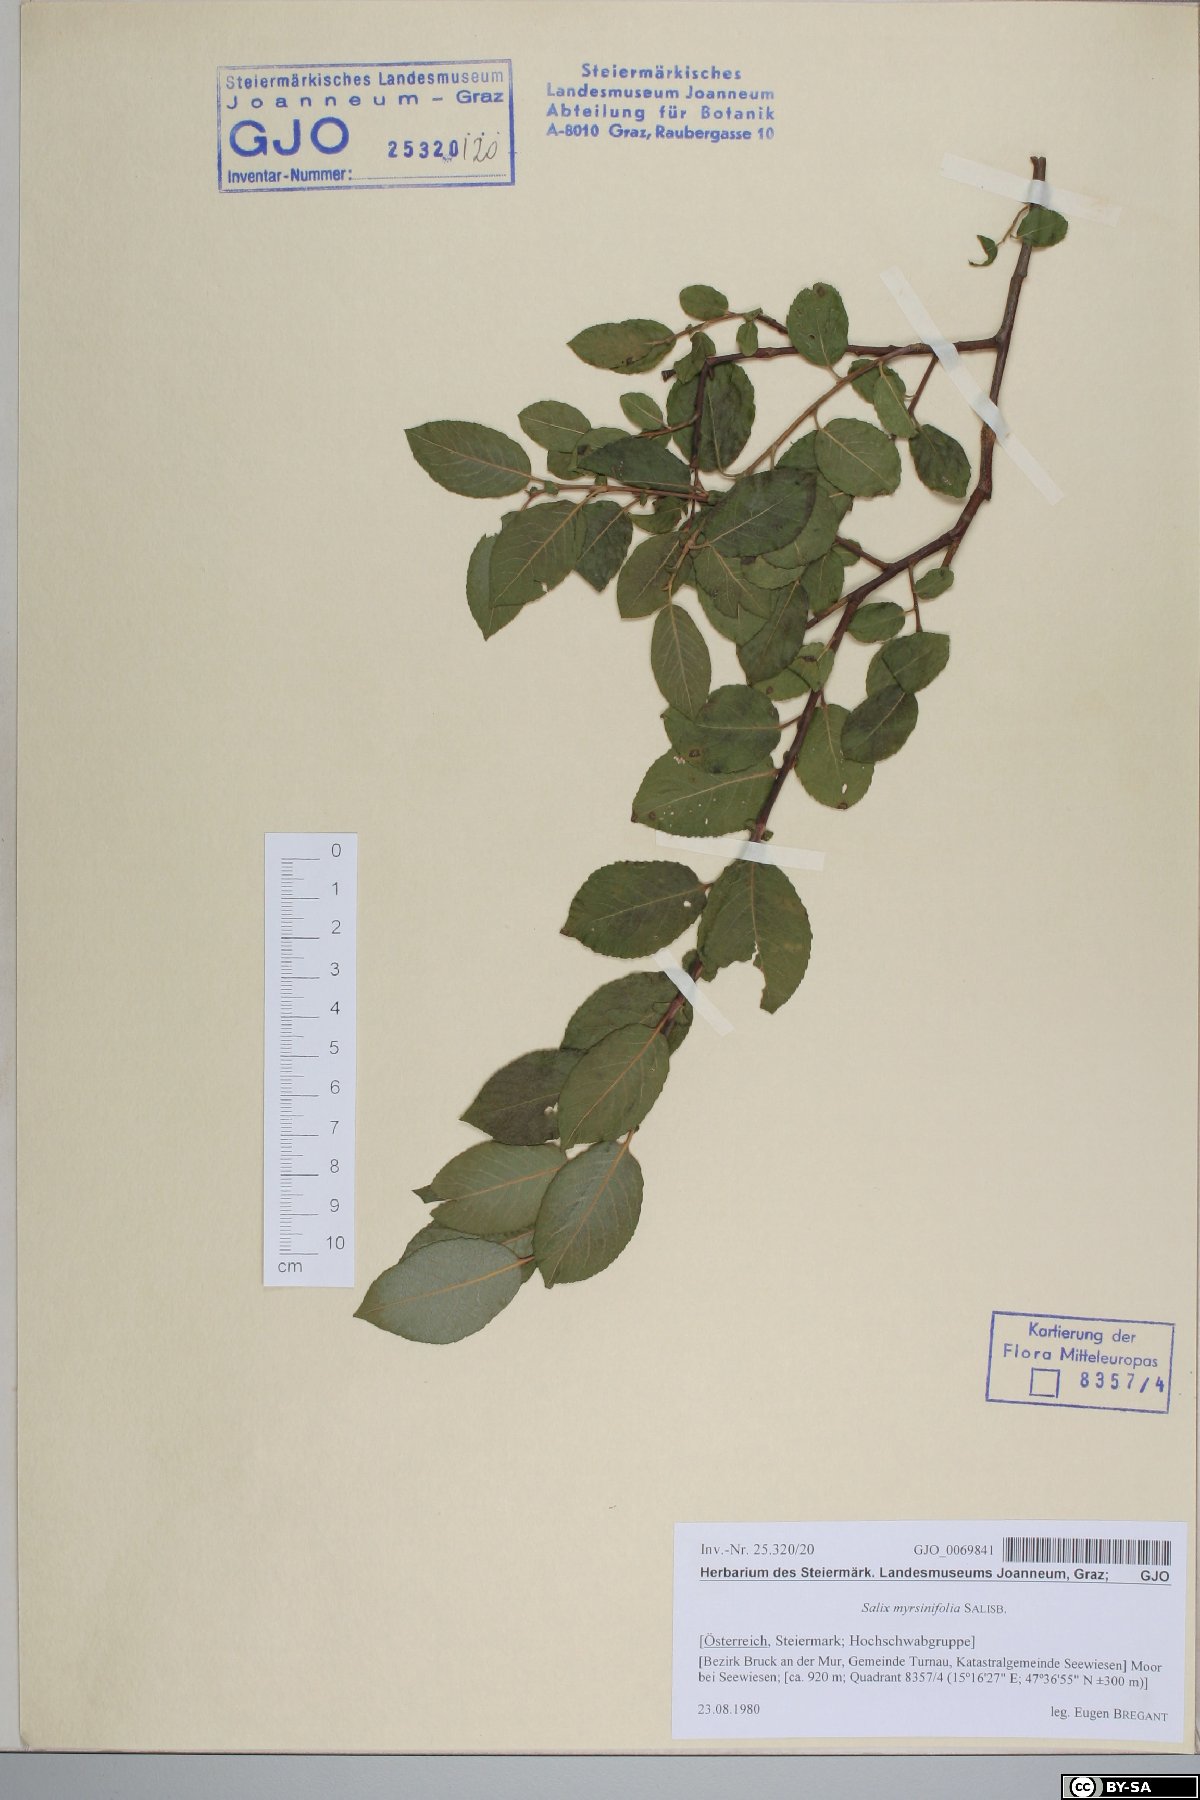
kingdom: Plantae
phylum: Tracheophyta
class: Magnoliopsida
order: Malpighiales
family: Salicaceae
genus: Salix
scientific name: Salix myrsinifolia
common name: Dark-leaved willow
